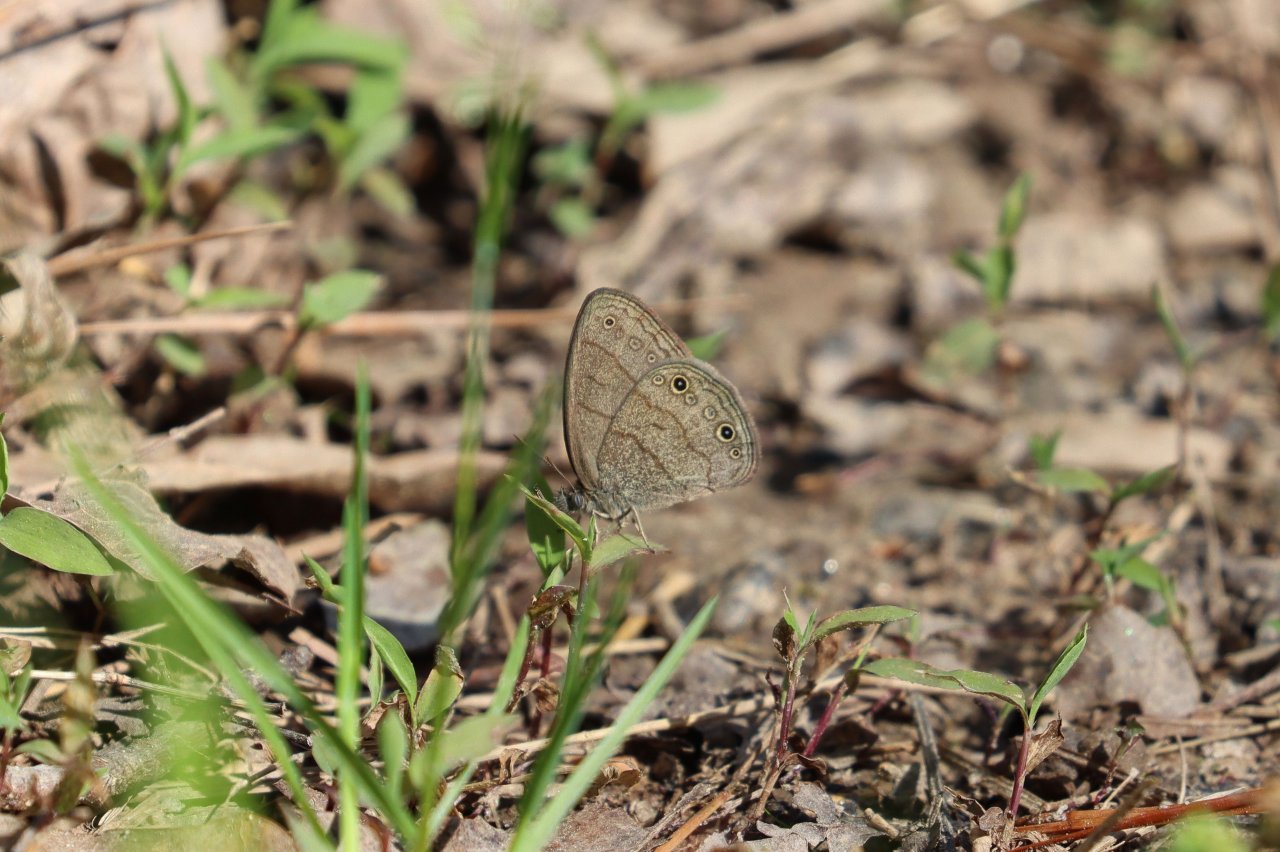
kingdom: Animalia
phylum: Arthropoda
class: Insecta
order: Lepidoptera
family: Nymphalidae
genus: Hermeuptychia
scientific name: Hermeuptychia hermes
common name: Carolina Satyr
